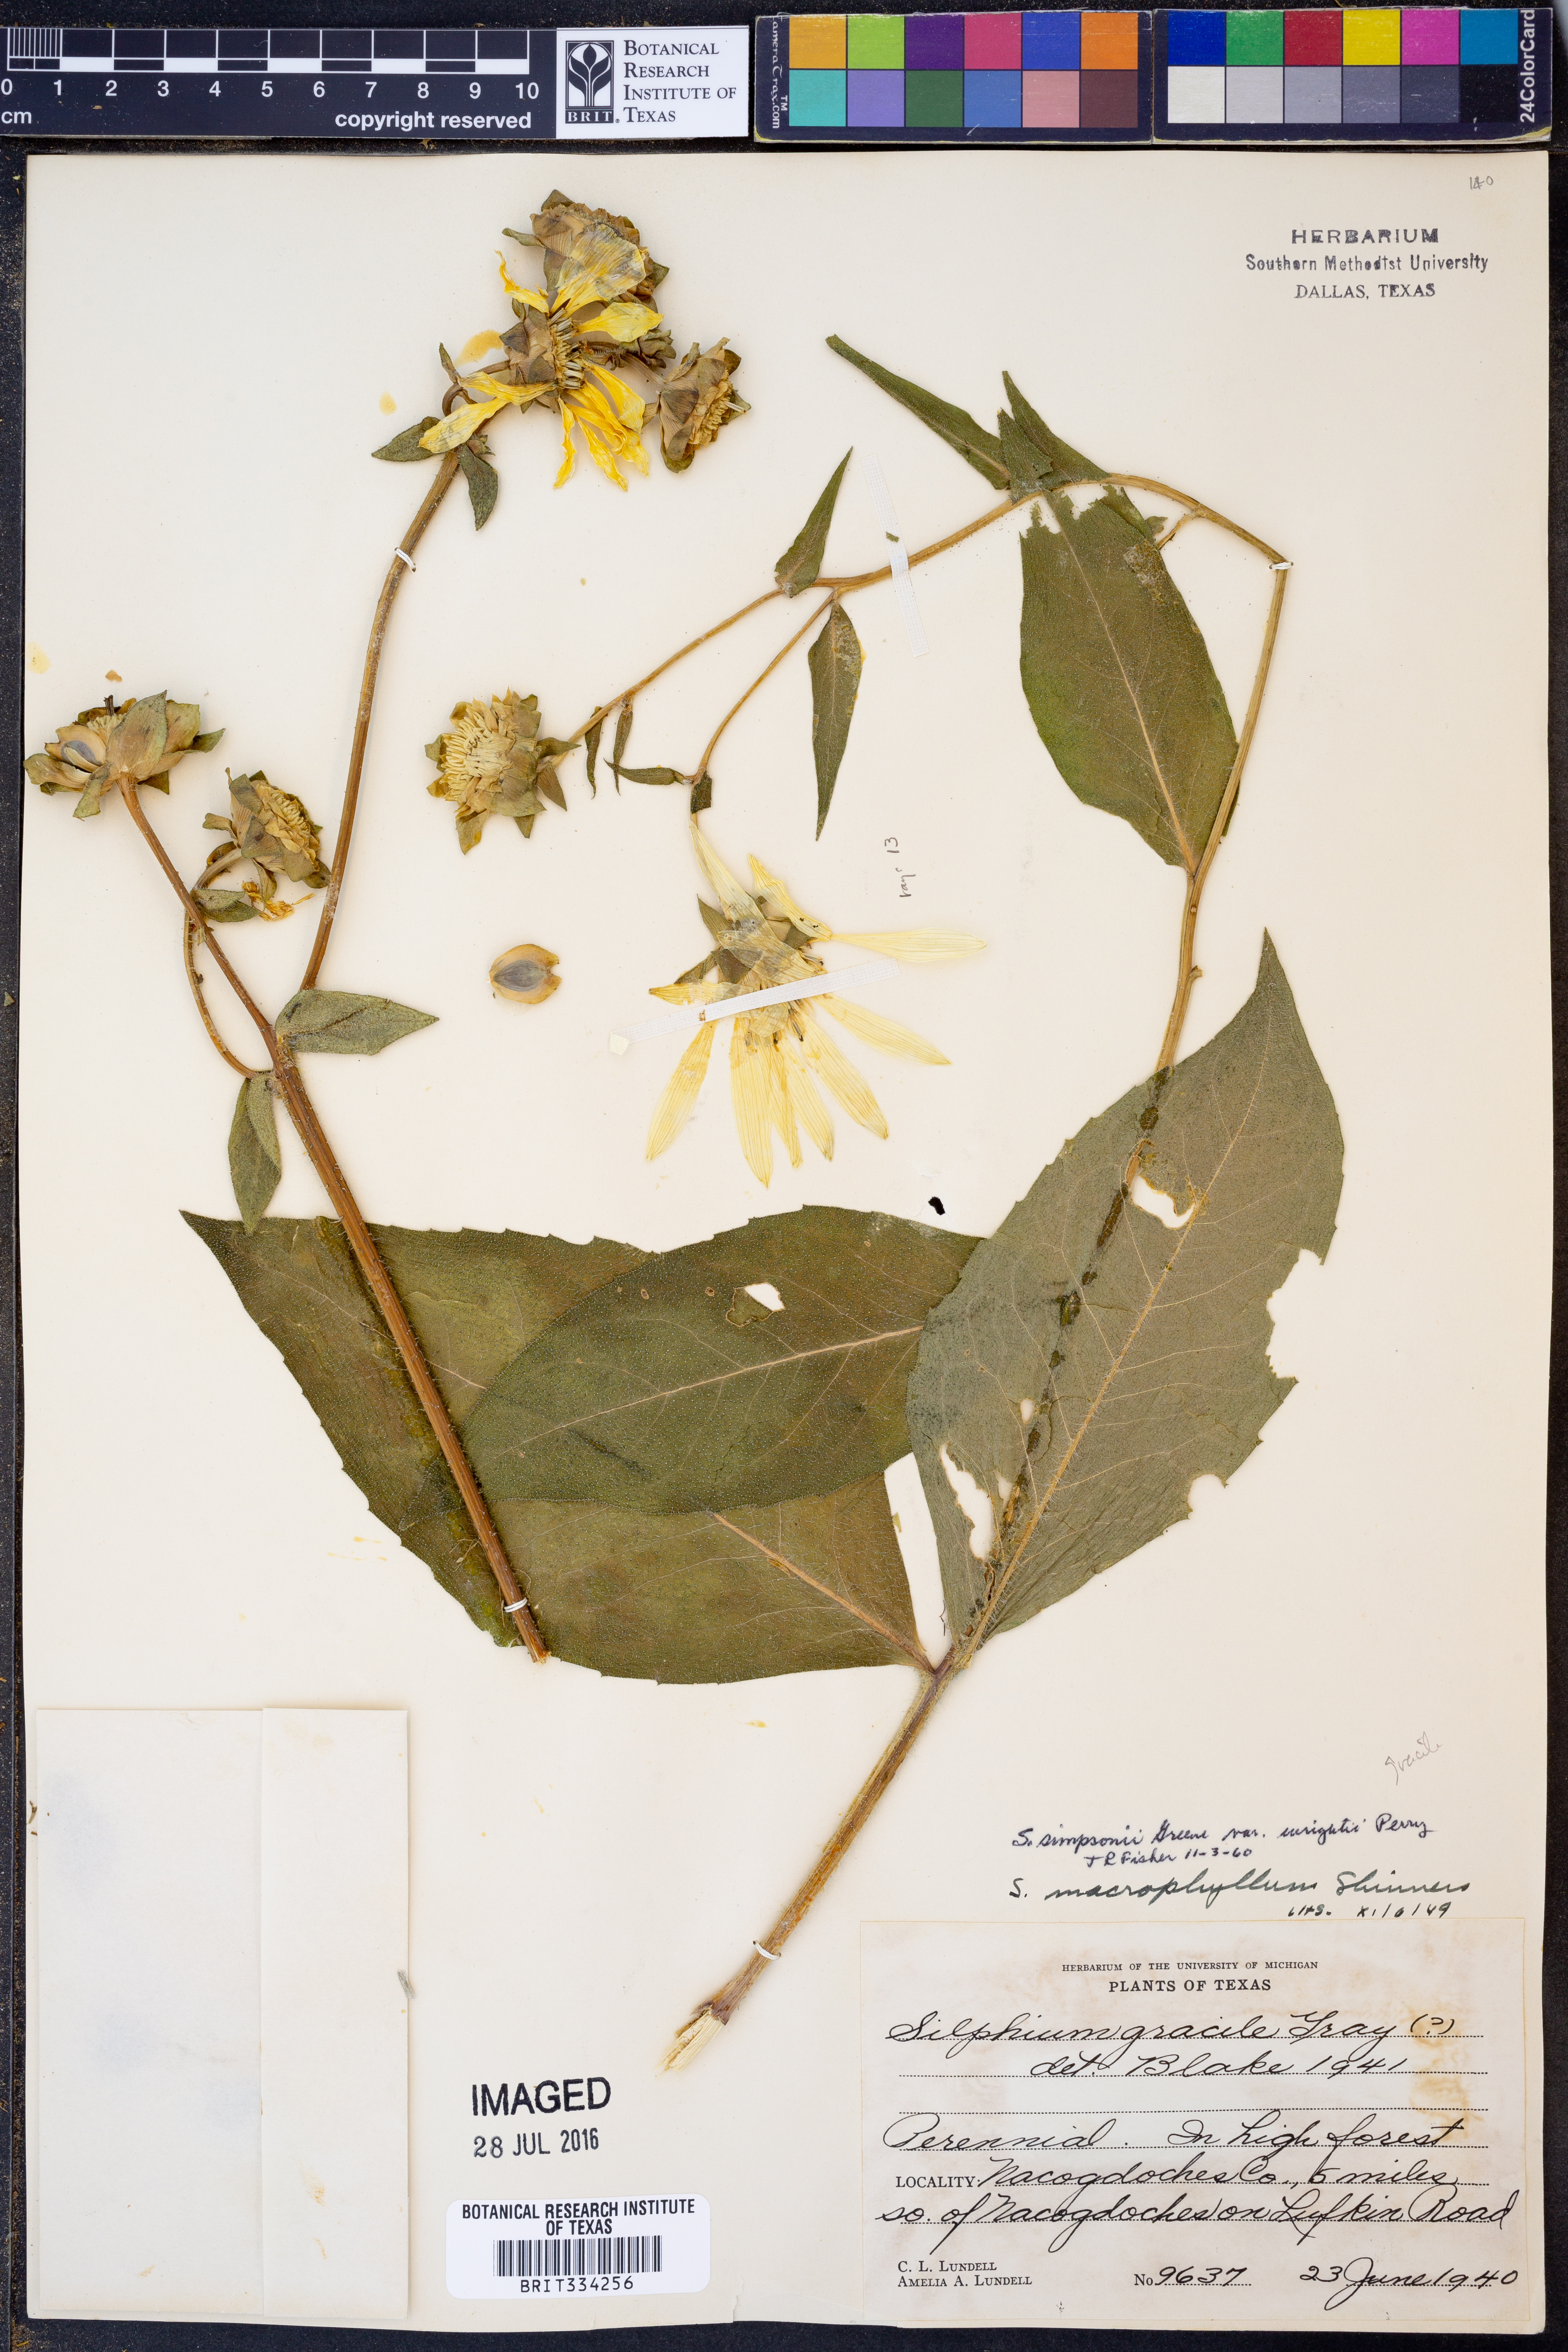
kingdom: Plantae
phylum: Tracheophyta
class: Magnoliopsida
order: Asterales
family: Asteraceae
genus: Silphium
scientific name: Silphium radula
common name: Roughleaf rosinweed
